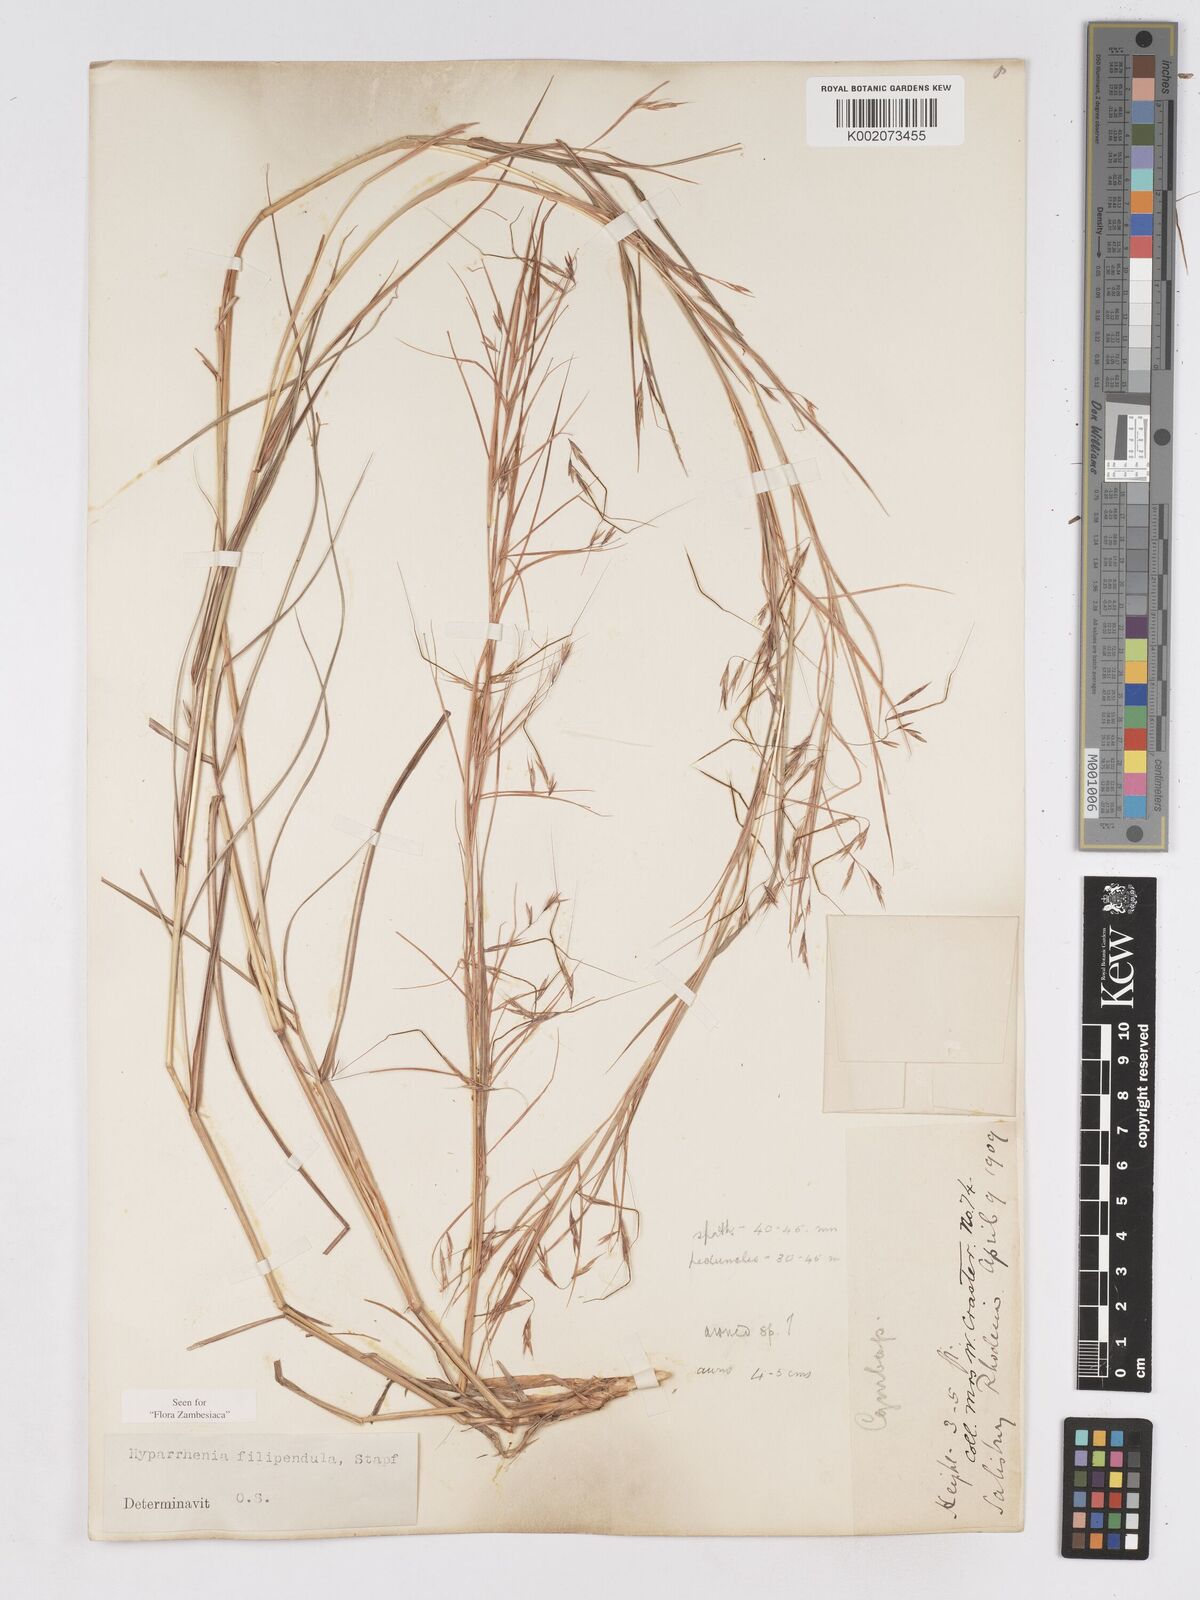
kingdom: Plantae
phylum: Tracheophyta
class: Liliopsida
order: Poales
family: Poaceae
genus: Hyparrhenia
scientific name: Hyparrhenia filipendula
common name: Tambookie grass
